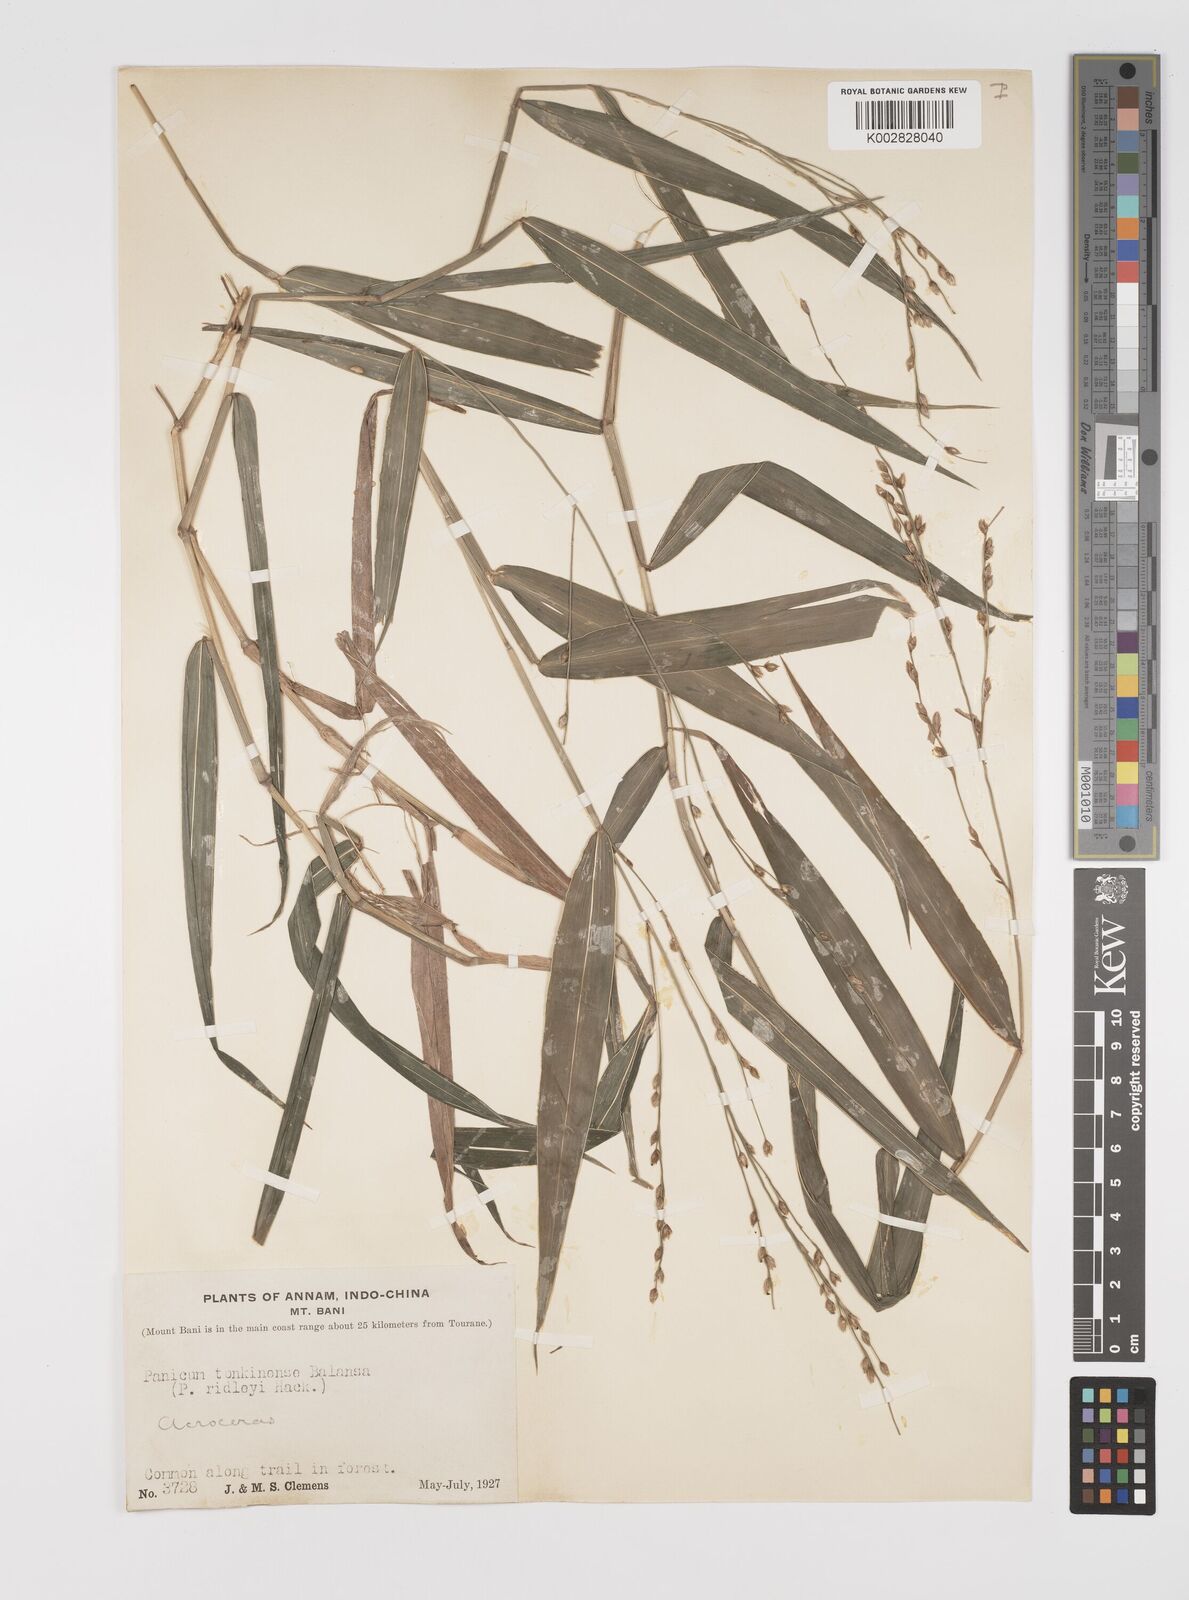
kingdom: Plantae
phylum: Tracheophyta
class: Liliopsida
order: Poales
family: Poaceae
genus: Acroceras
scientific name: Acroceras tonkinense
